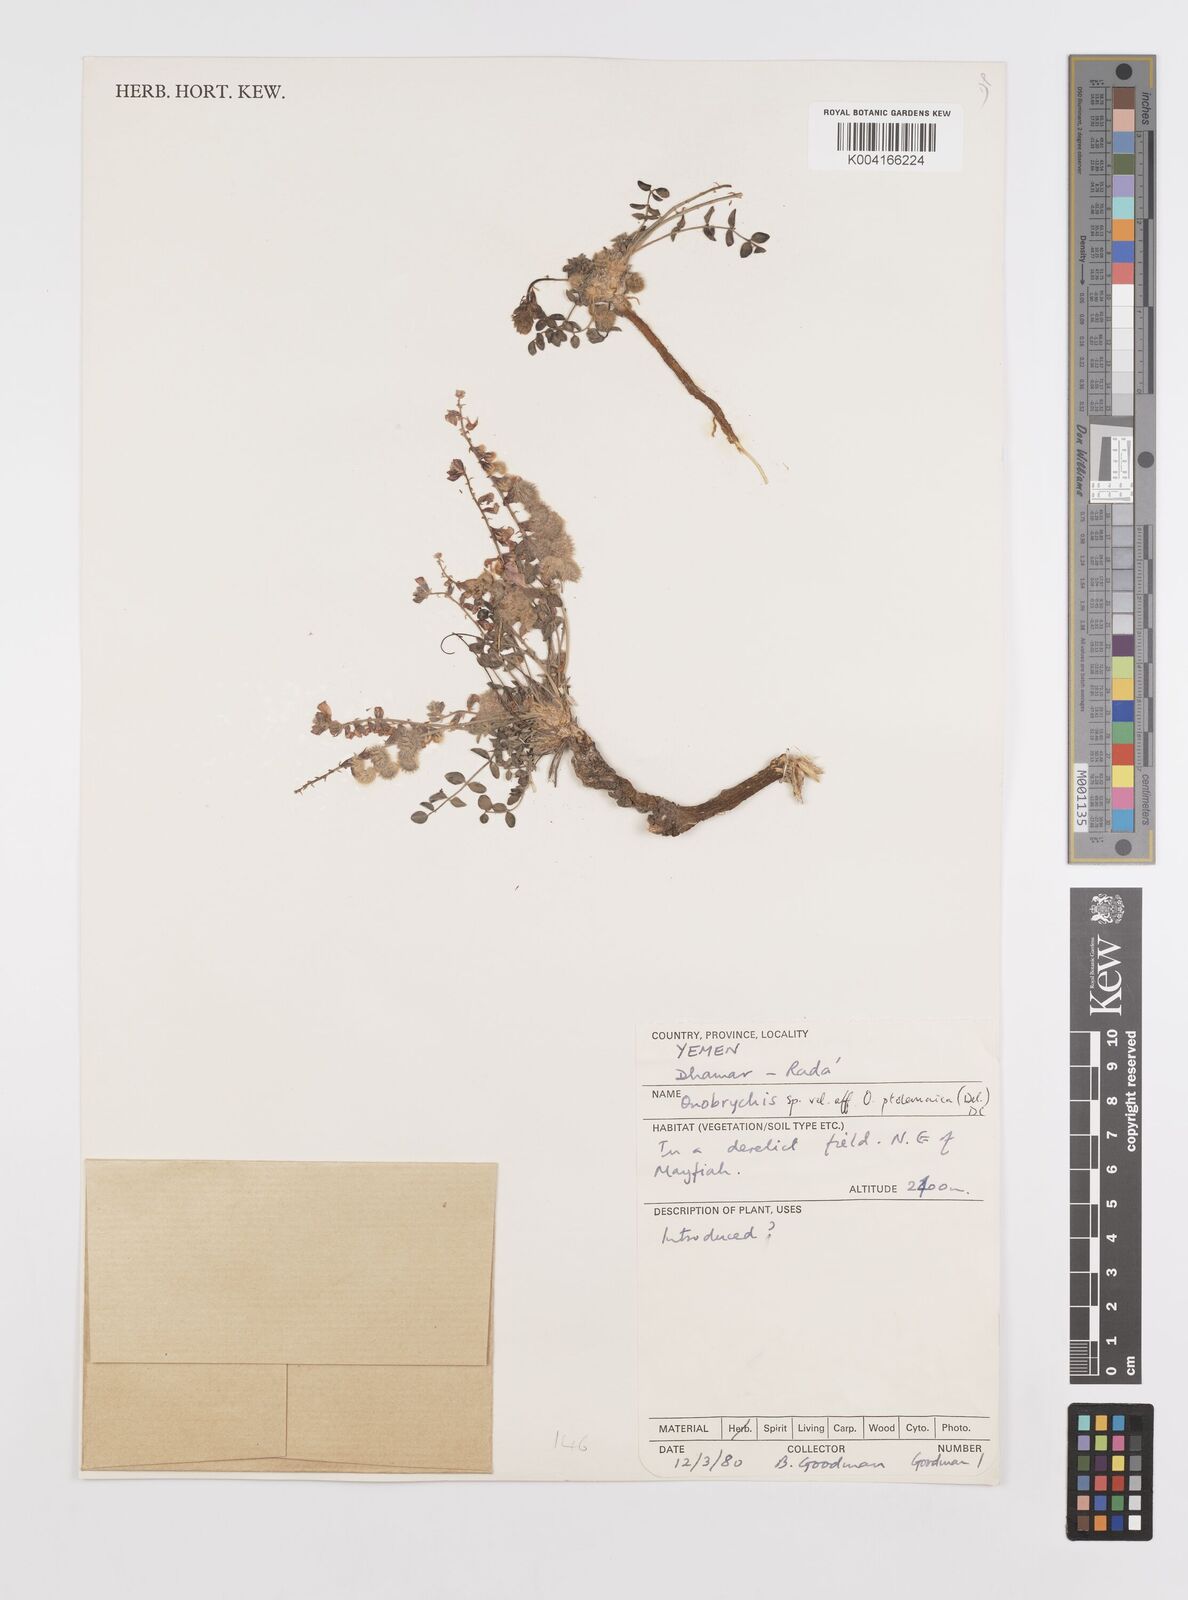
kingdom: Plantae
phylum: Tracheophyta
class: Magnoliopsida
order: Fabales
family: Fabaceae
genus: Onobrychis
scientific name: Onobrychis ptolemaica
